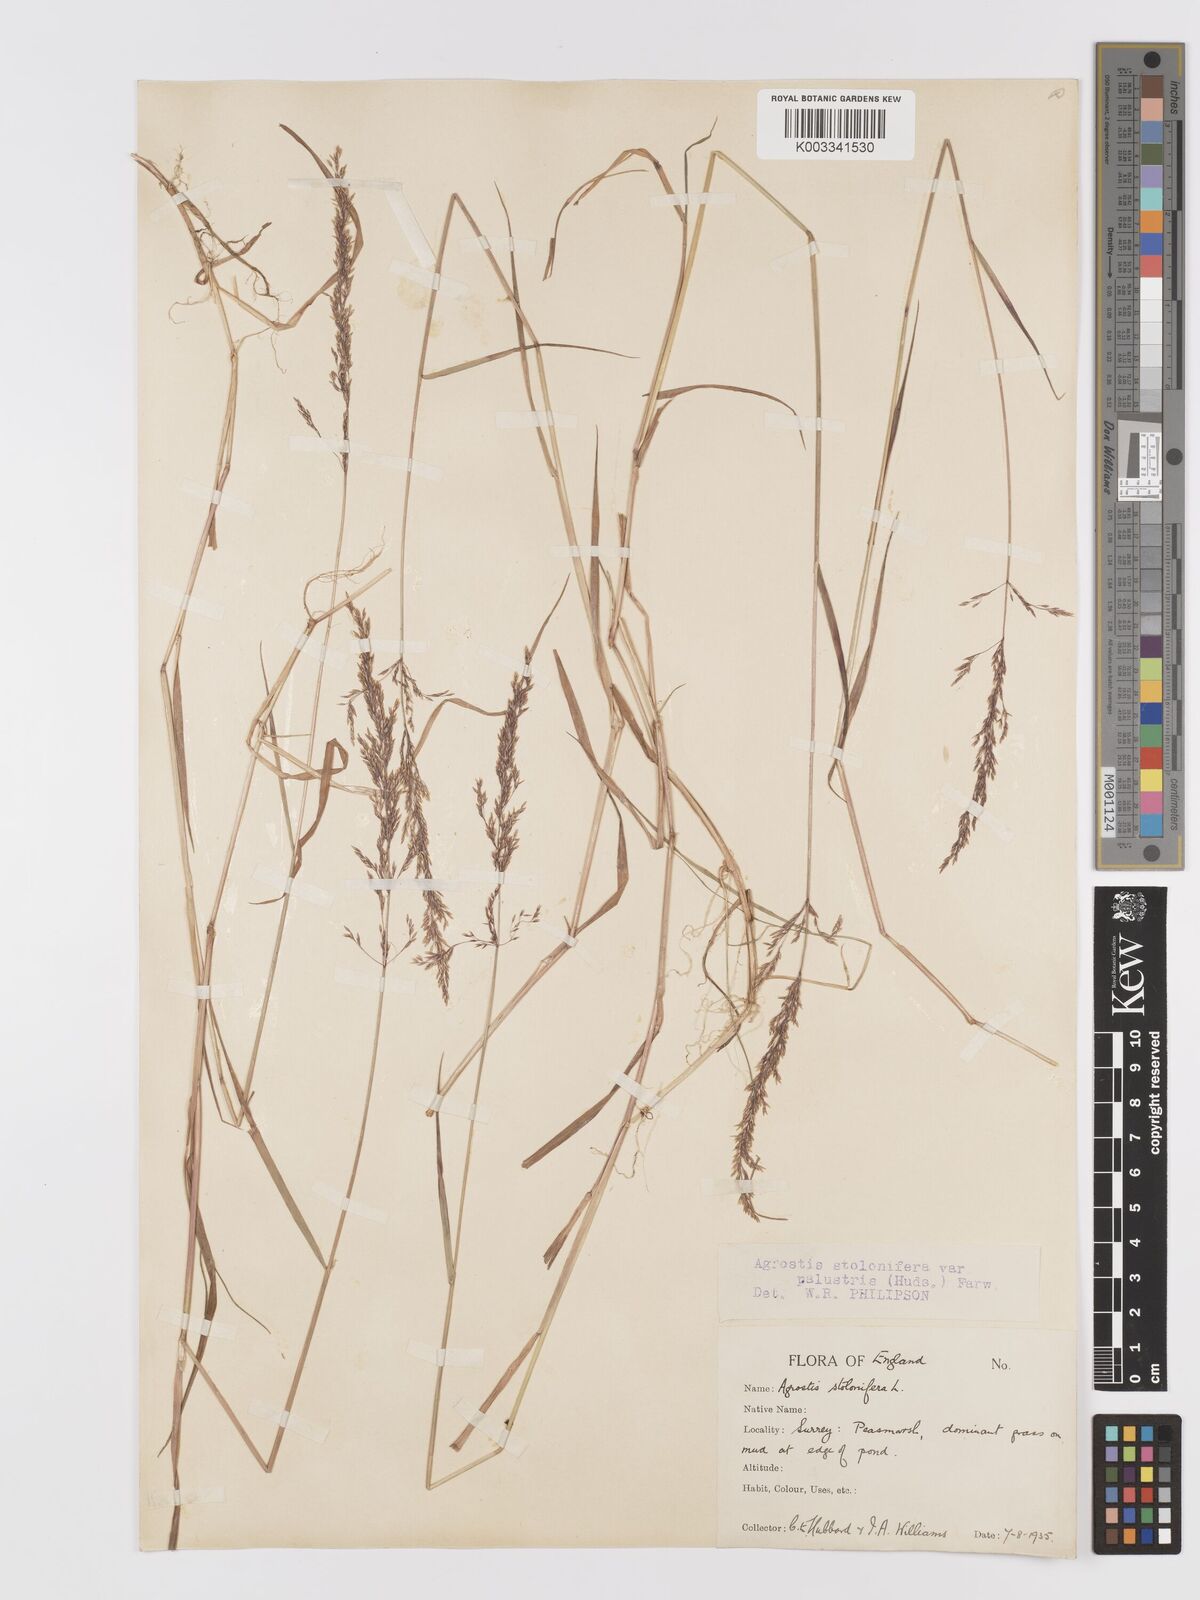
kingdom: Plantae
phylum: Tracheophyta
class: Liliopsida
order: Poales
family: Poaceae
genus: Agrostis
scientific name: Agrostis stolonifera
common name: Creeping bentgrass
